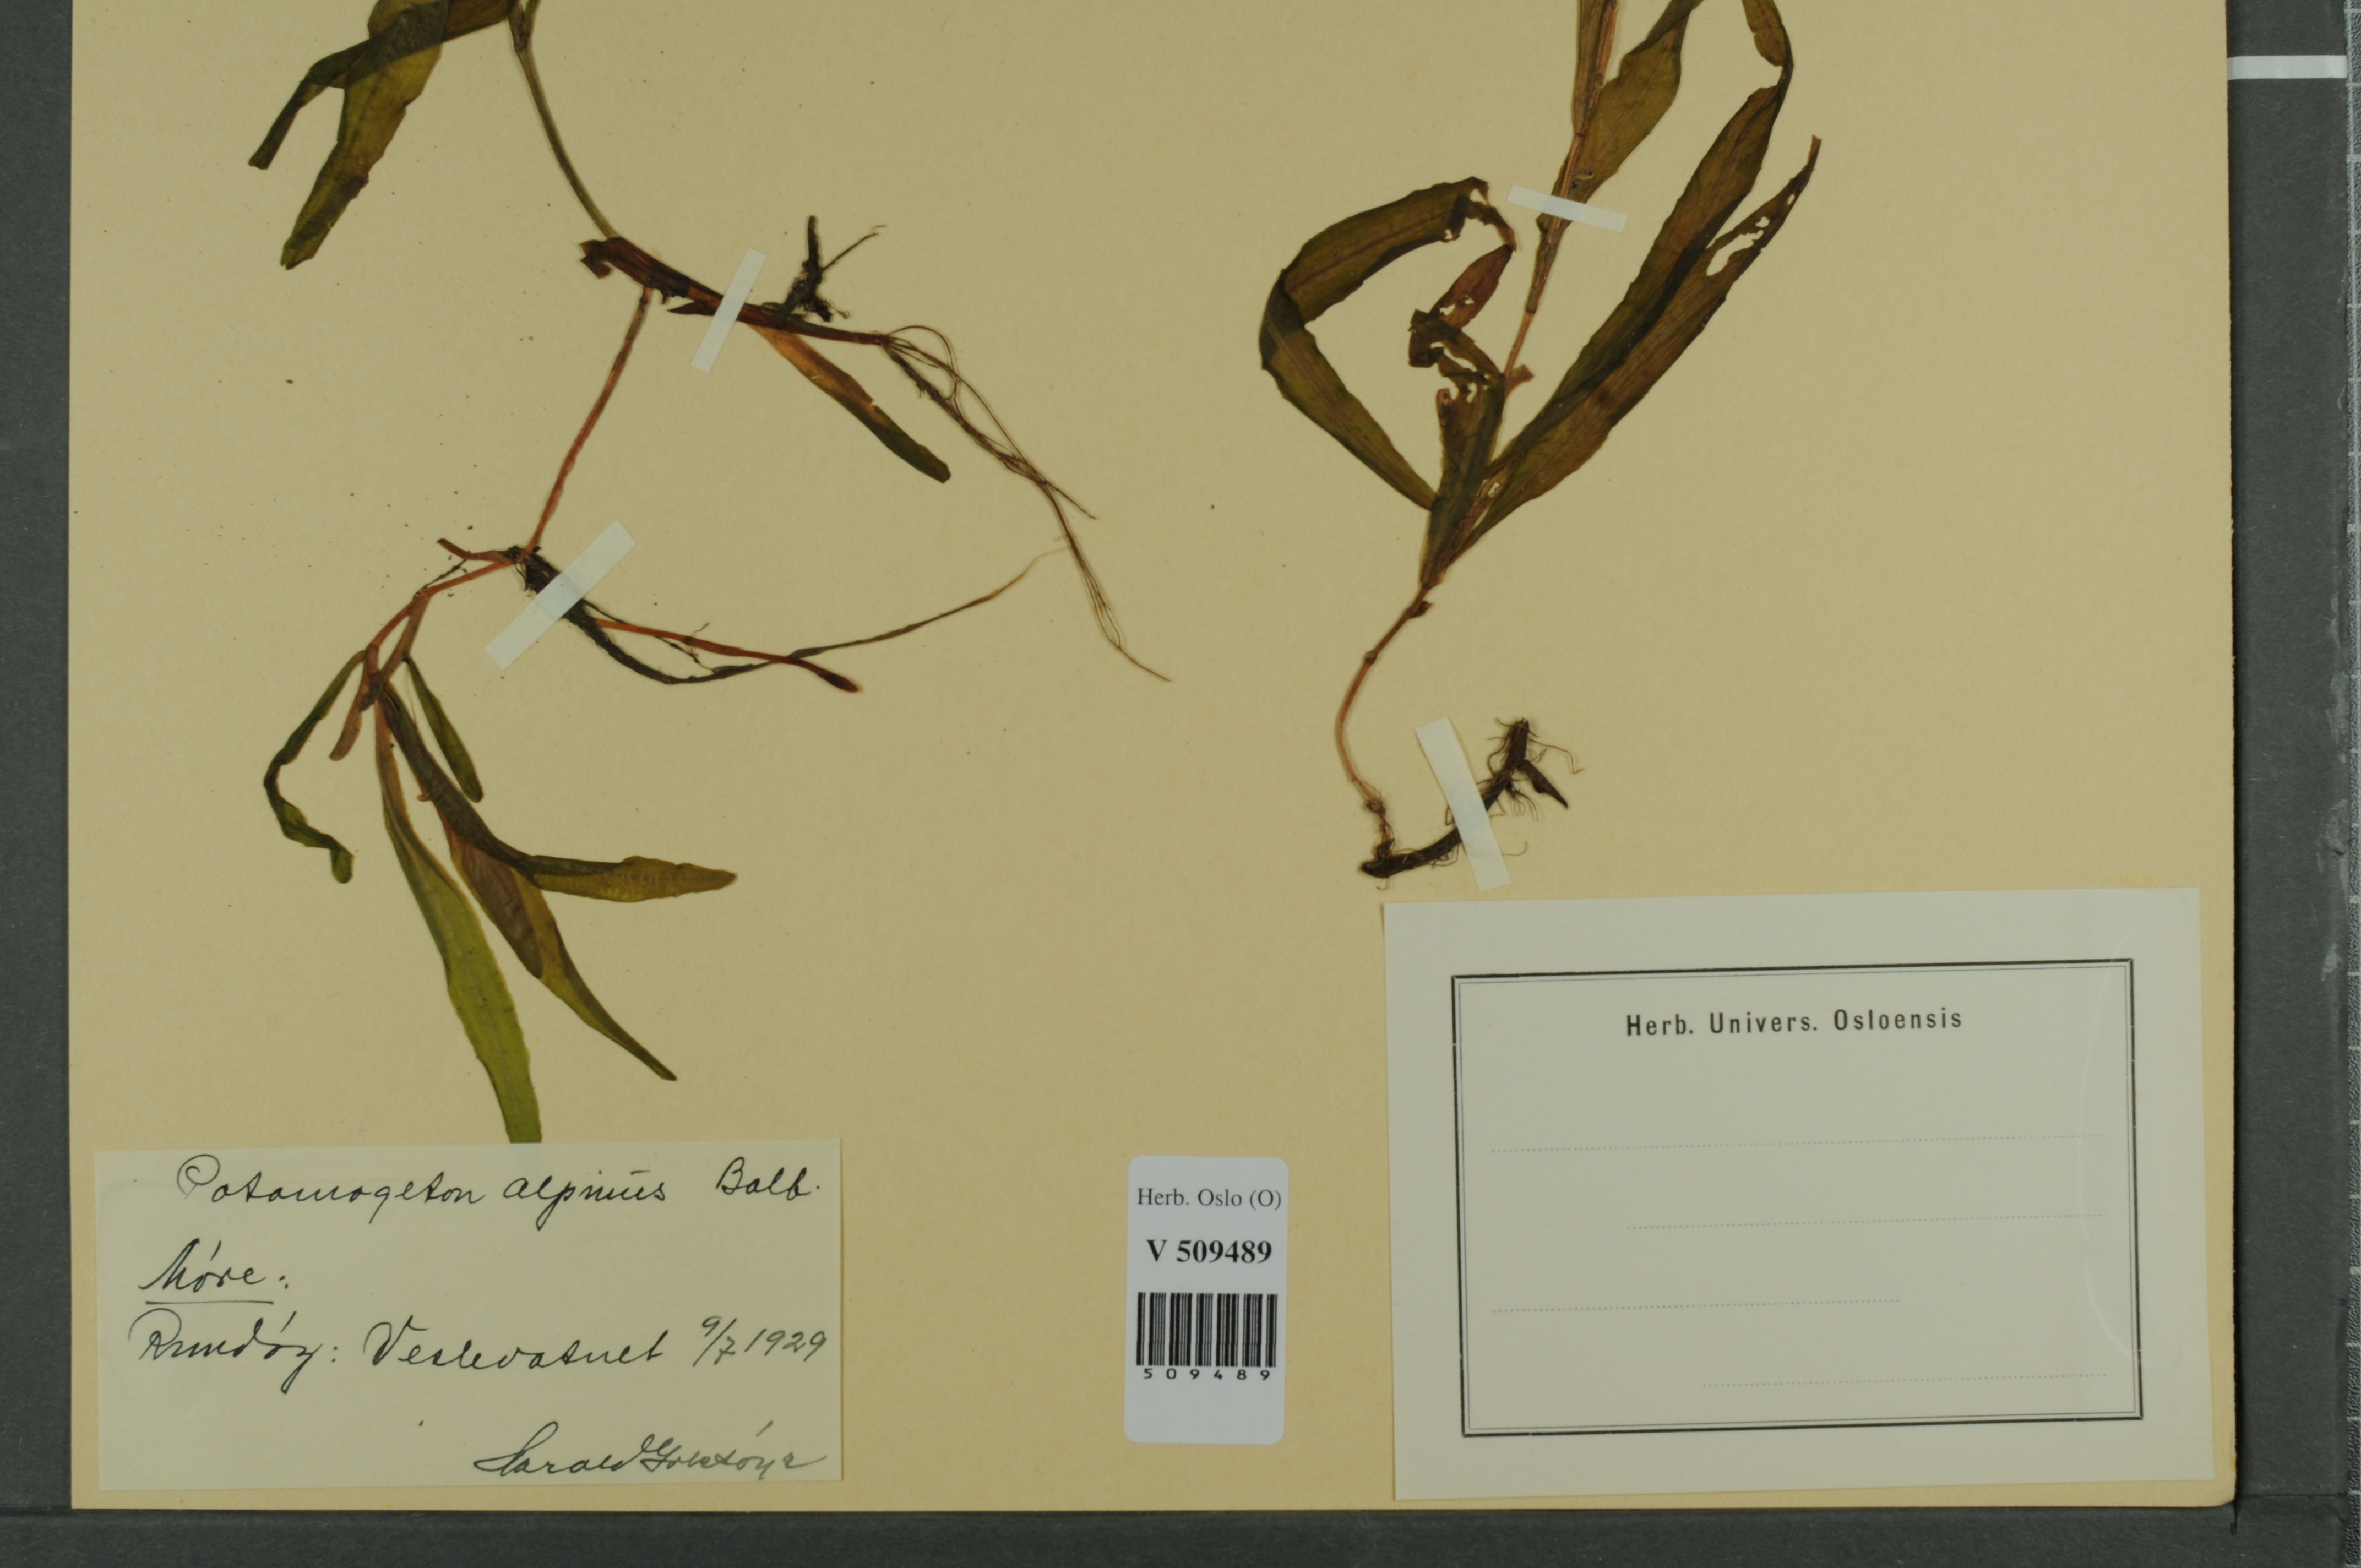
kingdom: Plantae
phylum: Tracheophyta
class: Liliopsida
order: Alismatales
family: Potamogetonaceae
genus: Potamogeton
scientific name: Potamogeton alpinus
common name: Red pondweed
